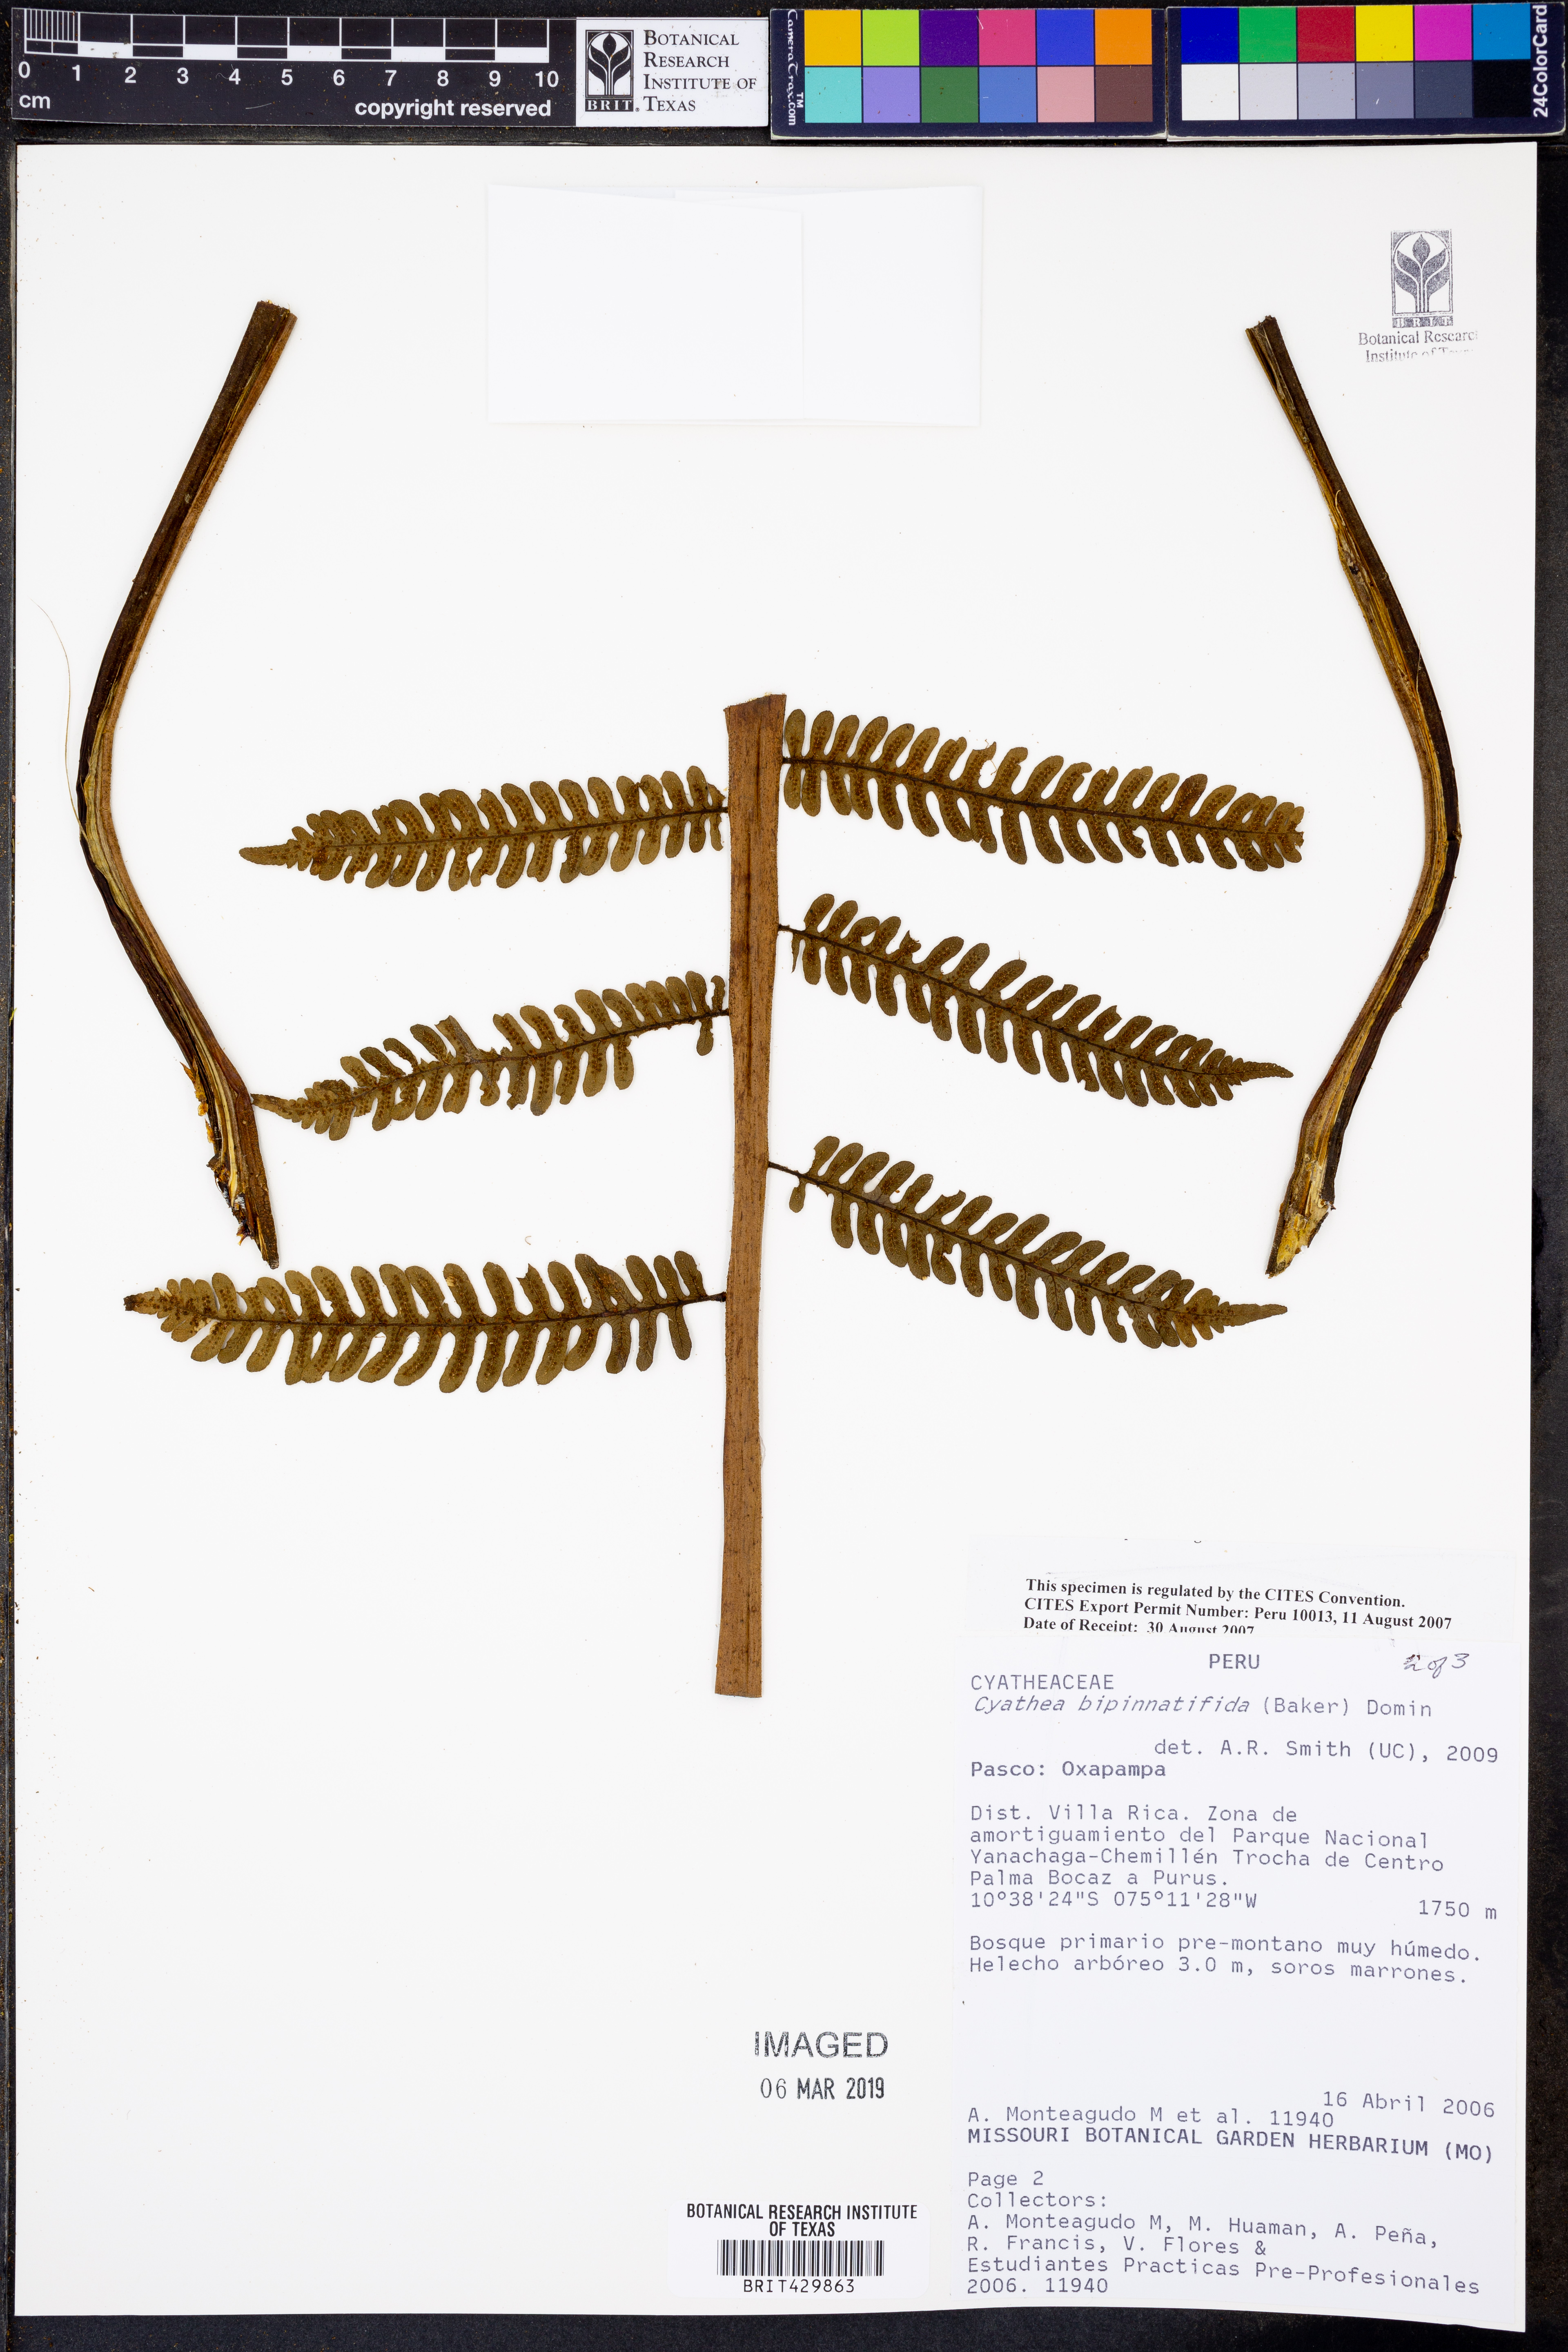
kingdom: Plantae
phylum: Tracheophyta
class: Polypodiopsida
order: Cyatheales
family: Cyatheaceae
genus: Cyathea
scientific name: Cyathea bipinnatifida
